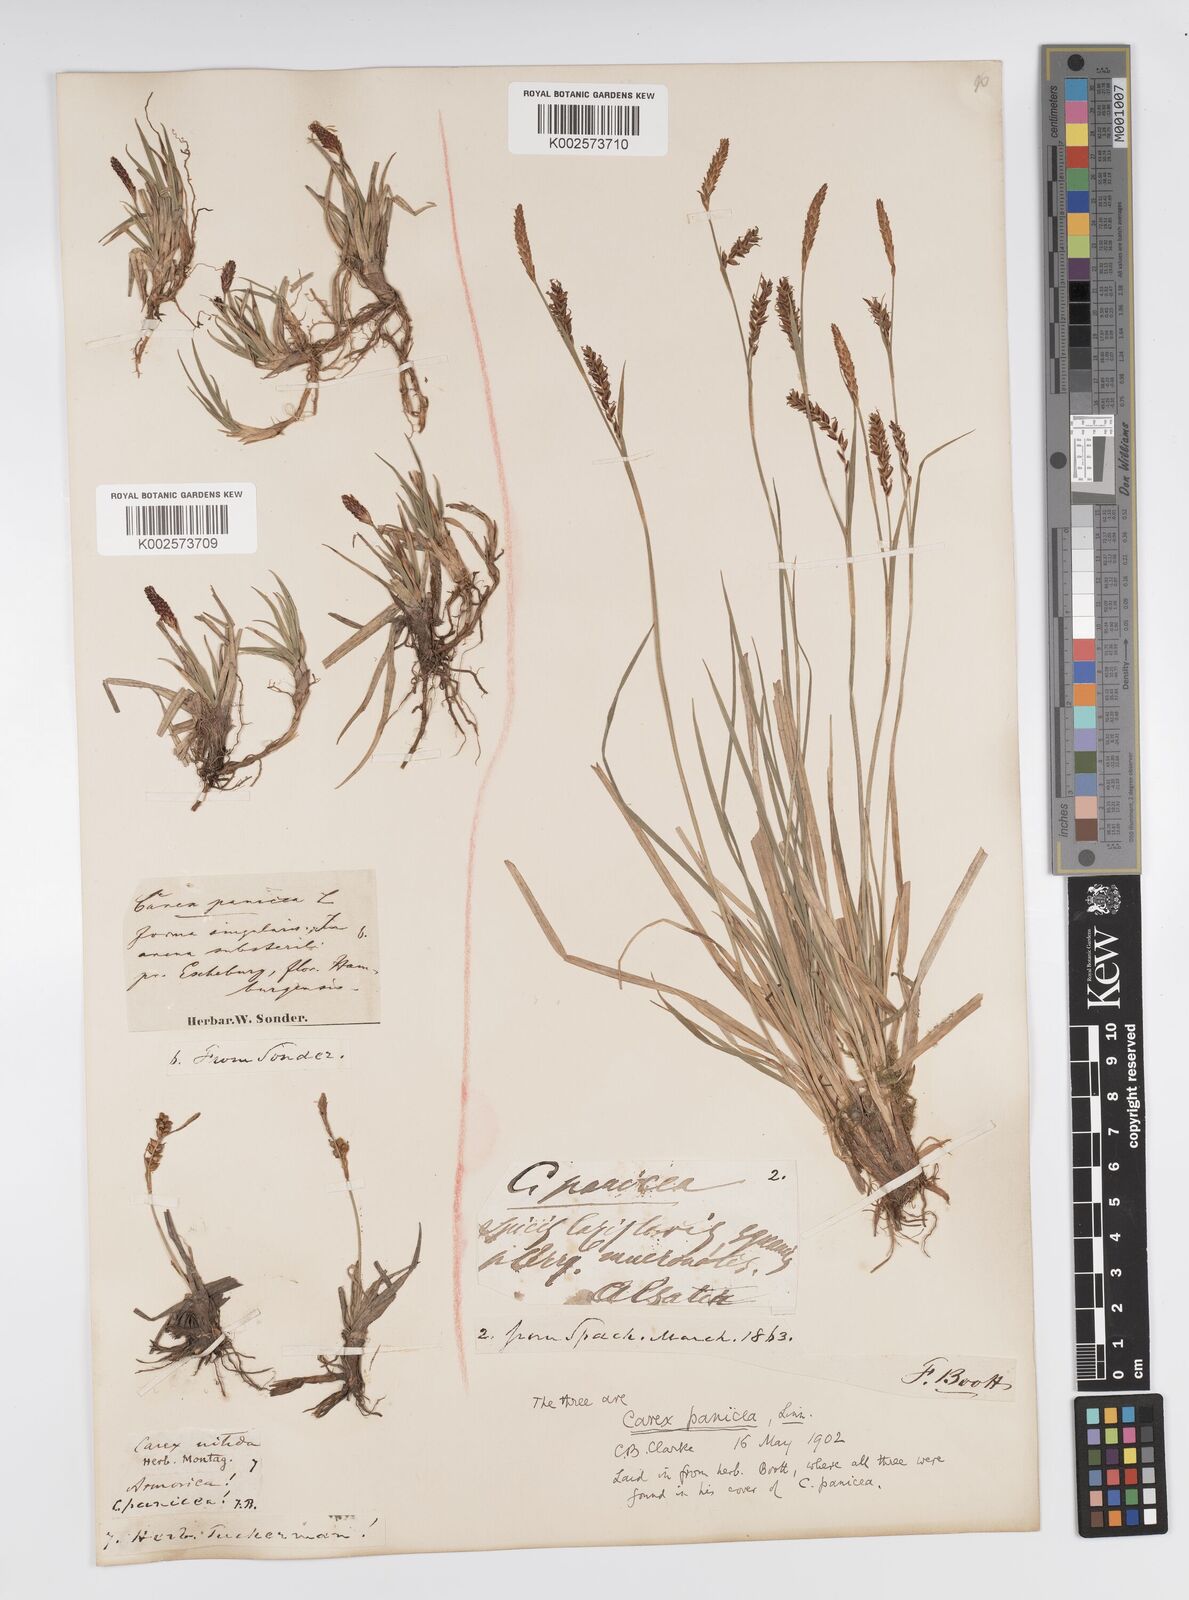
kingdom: Plantae
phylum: Tracheophyta
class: Liliopsida
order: Poales
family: Cyperaceae
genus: Carex
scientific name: Carex panicea
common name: Carnation sedge
